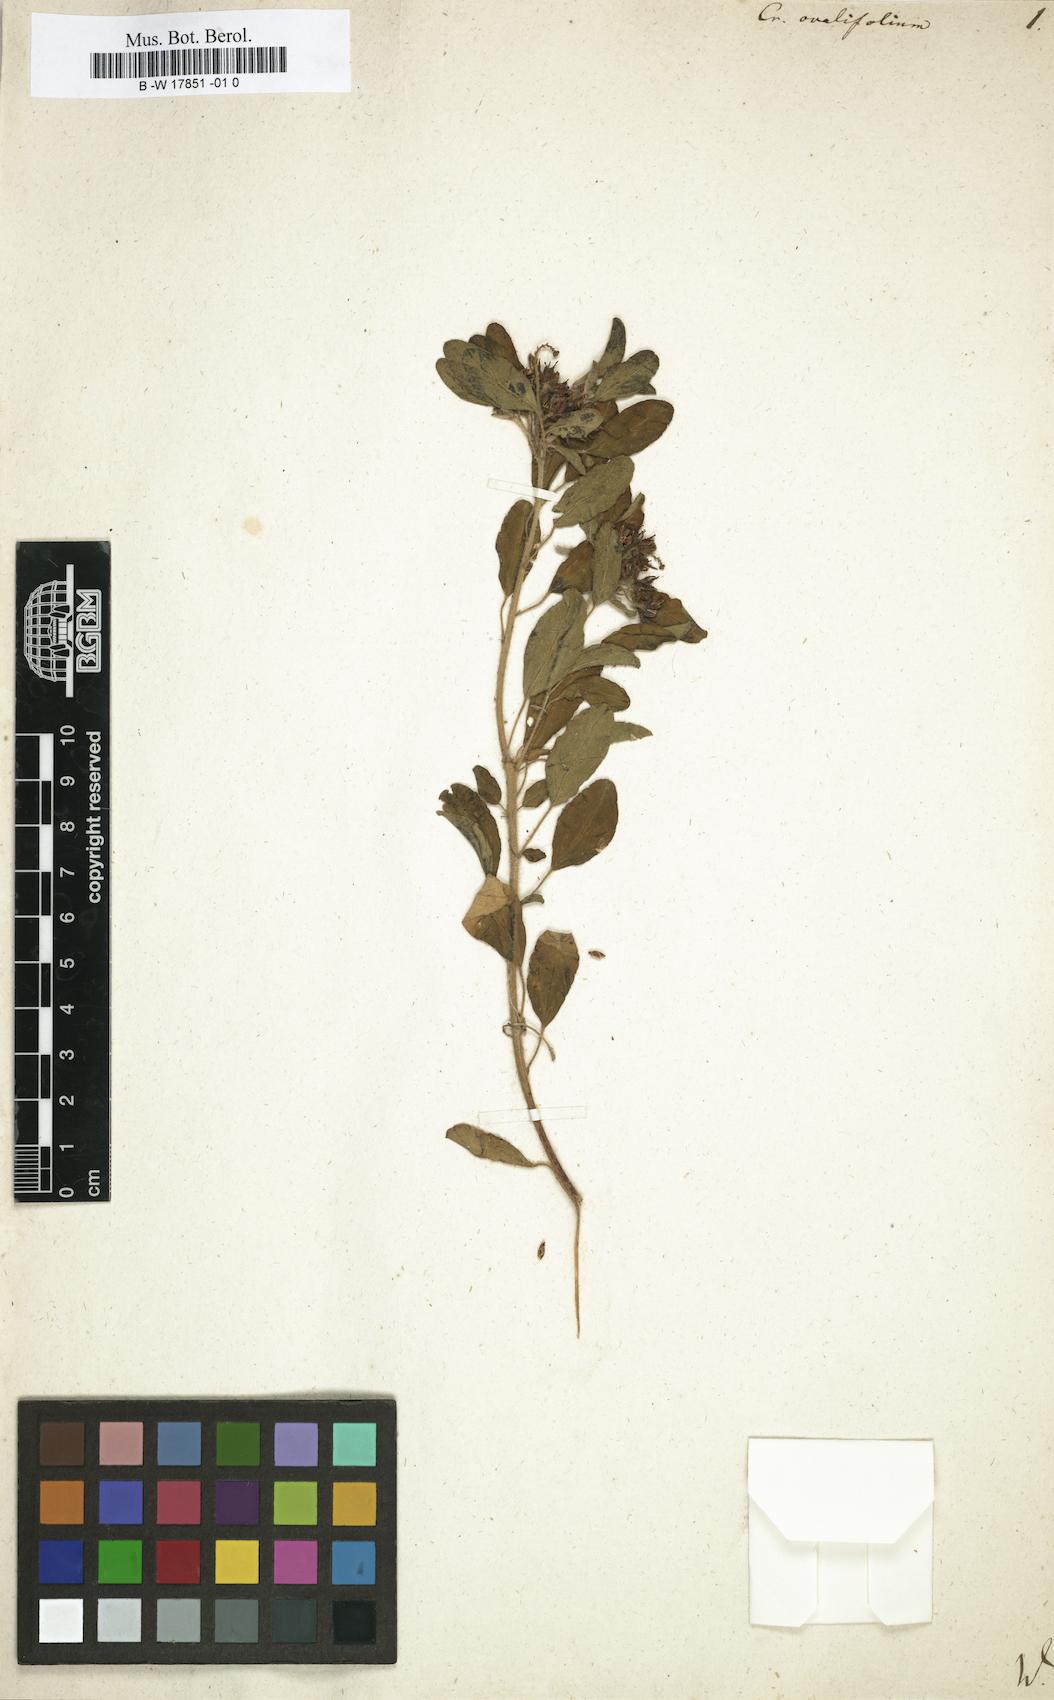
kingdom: Plantae
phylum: Tracheophyta
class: Magnoliopsida
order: Malpighiales
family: Euphorbiaceae
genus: Croton
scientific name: Croton ovalifolius
